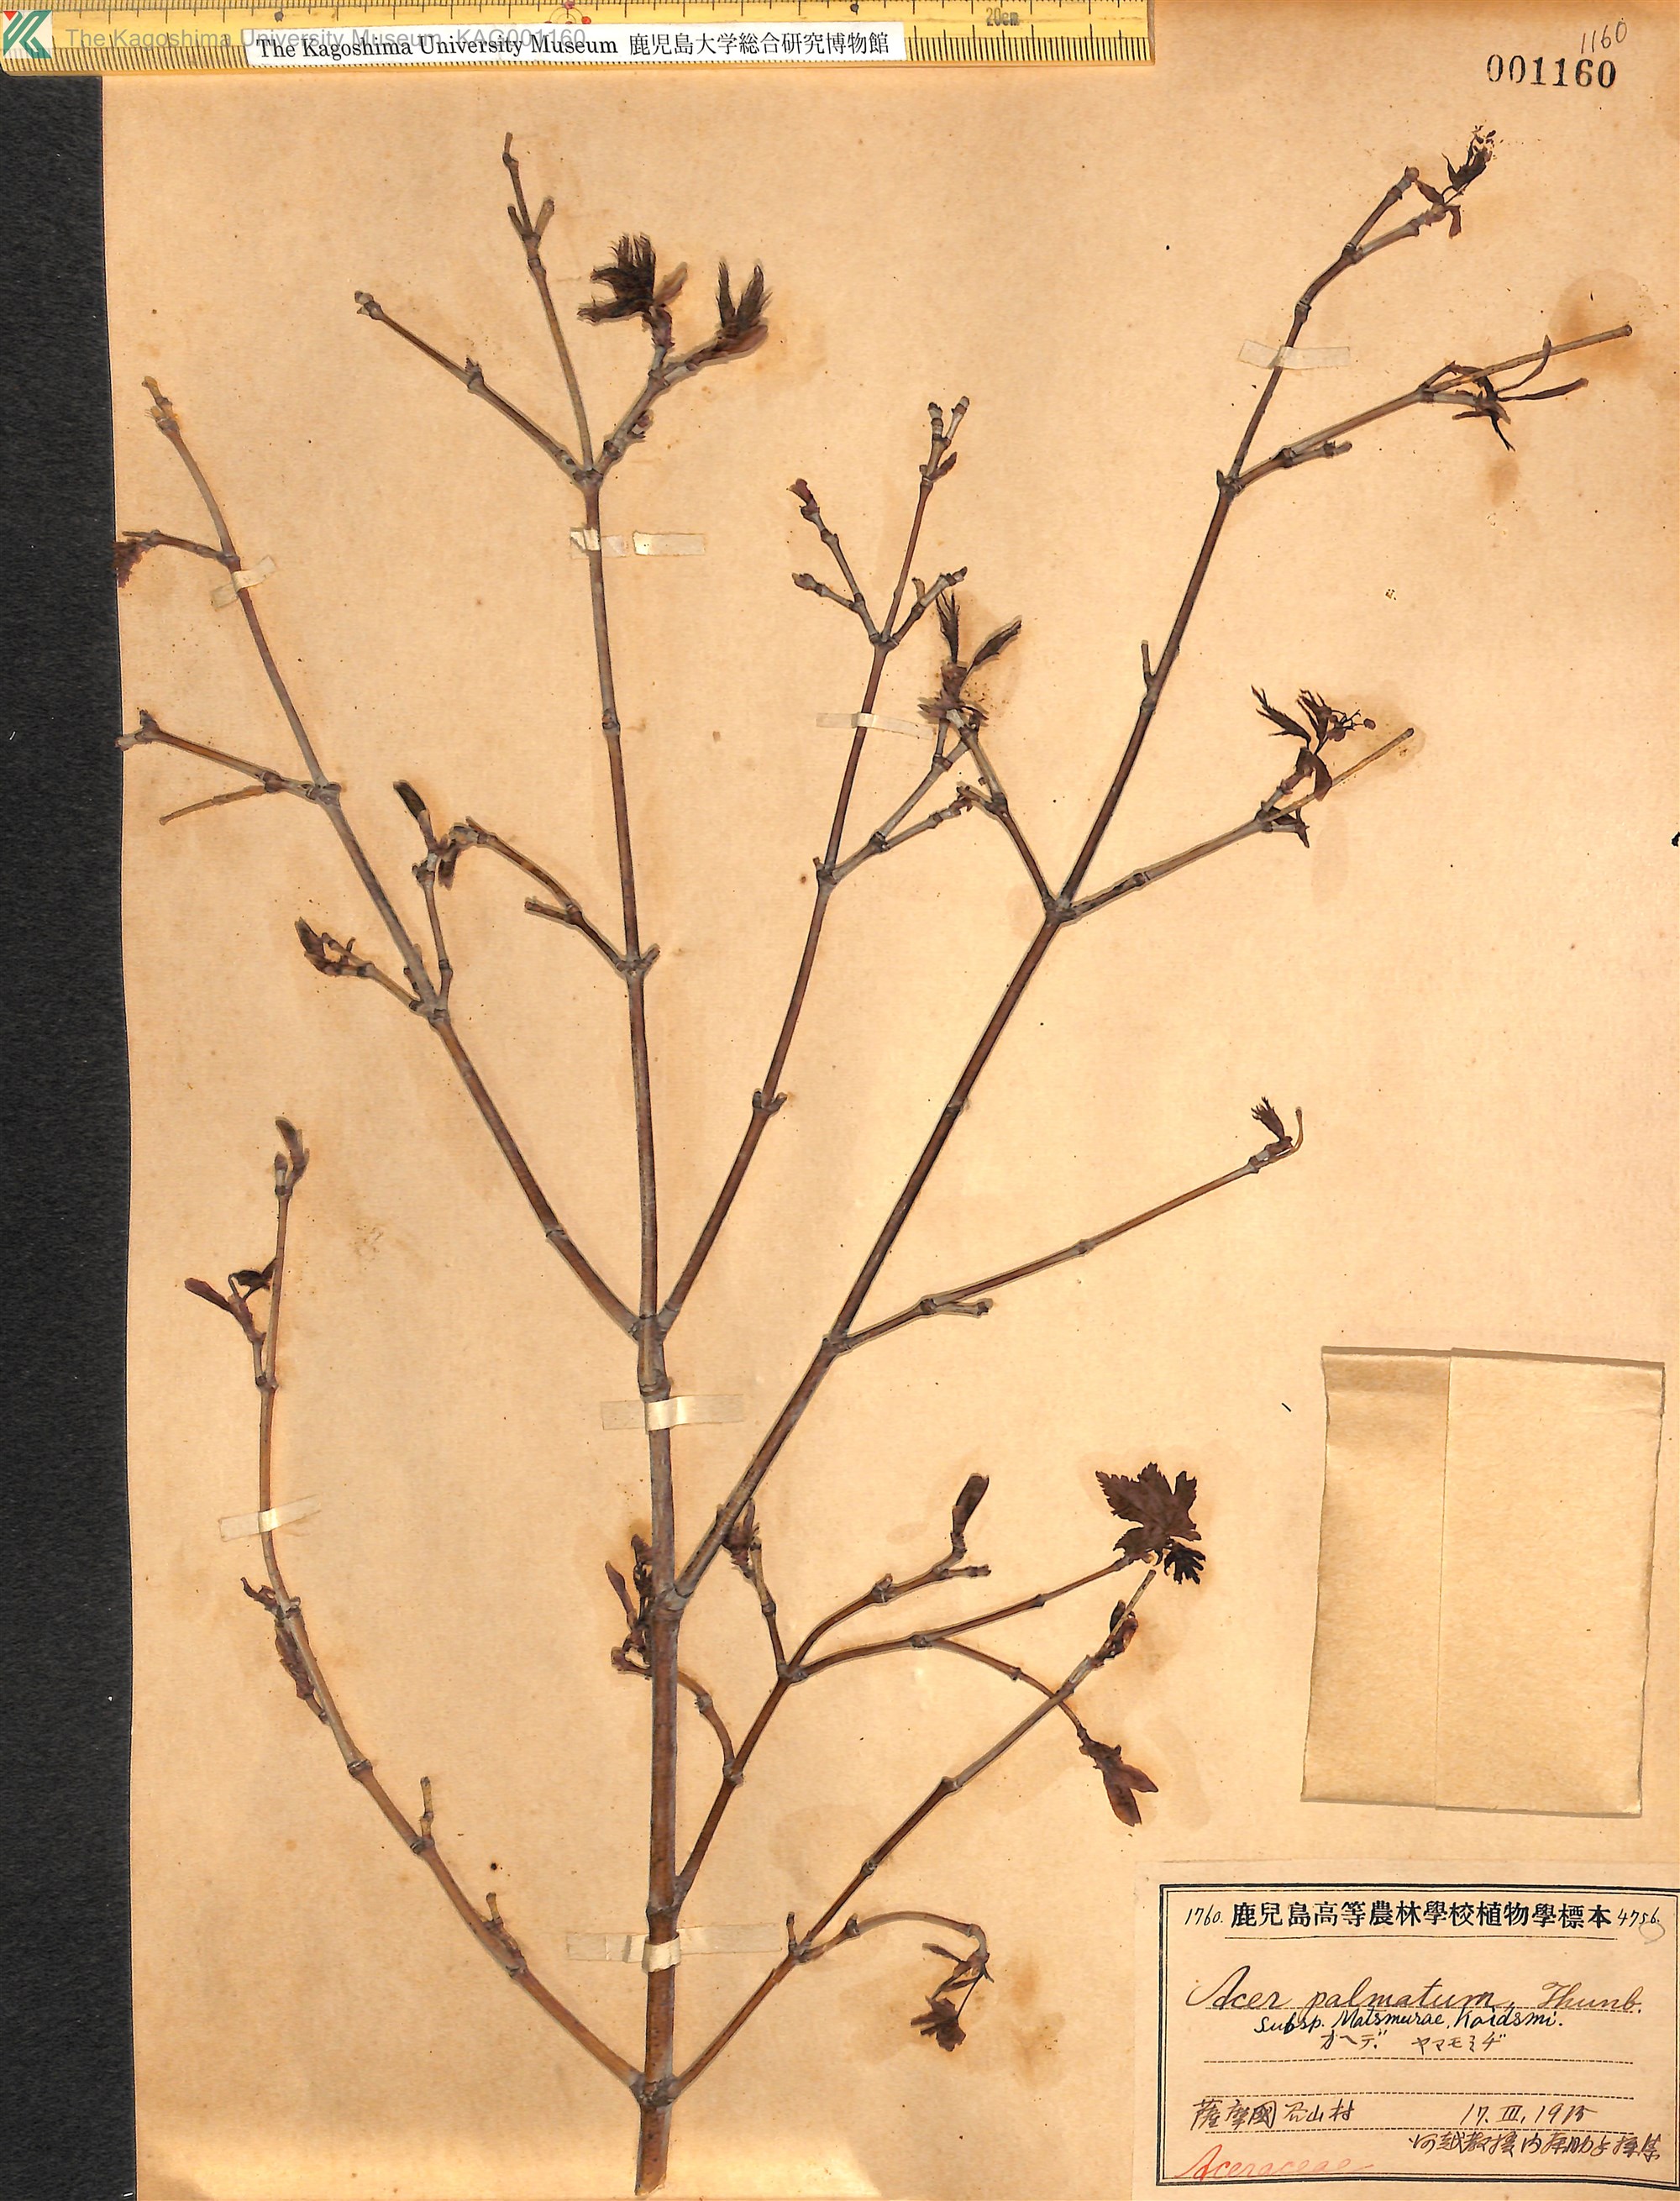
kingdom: Plantae
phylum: Tracheophyta
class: Magnoliopsida
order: Sapindales
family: Sapindaceae
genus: Acer
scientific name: Acer palmatum
